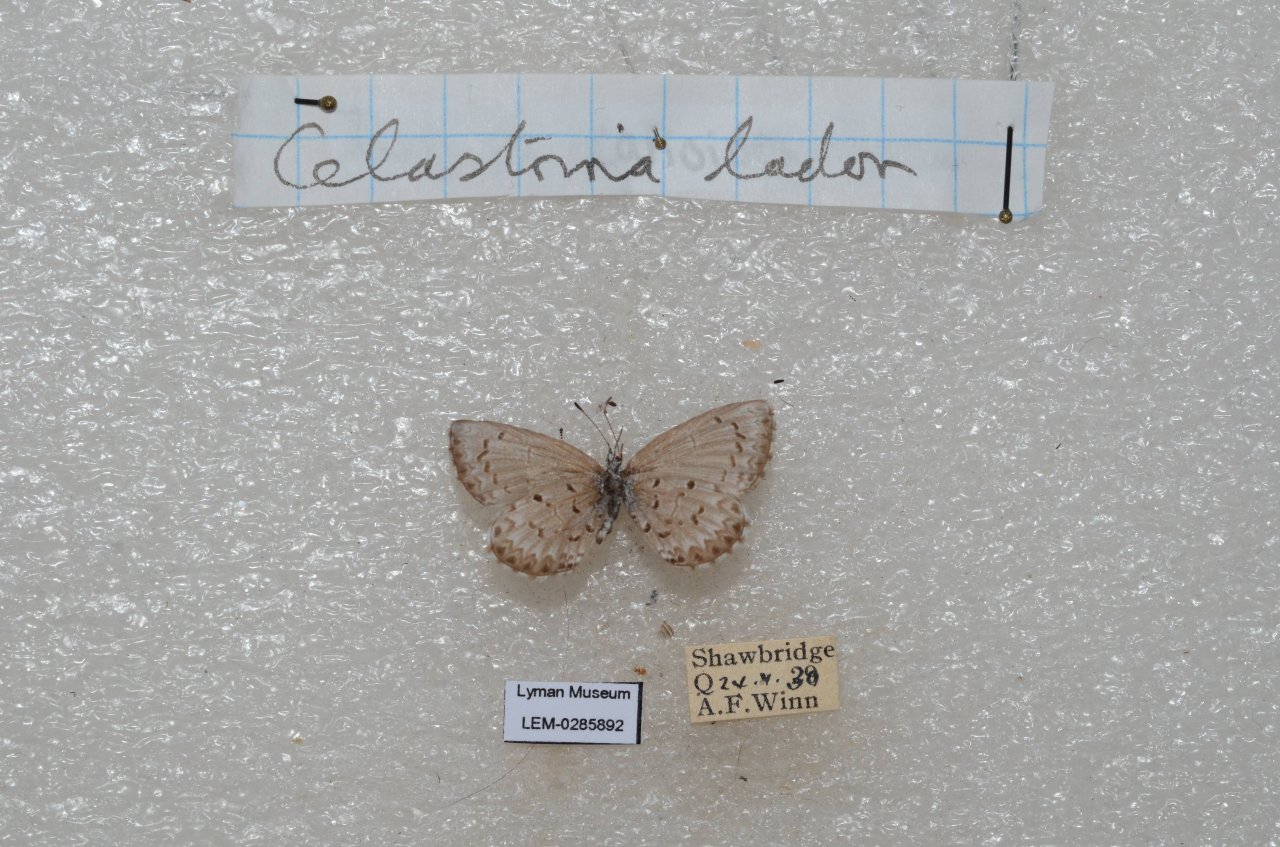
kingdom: Animalia
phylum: Arthropoda
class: Insecta
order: Lepidoptera
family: Lycaenidae
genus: Celastrina
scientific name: Celastrina lucia
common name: Northern Spring Azure
